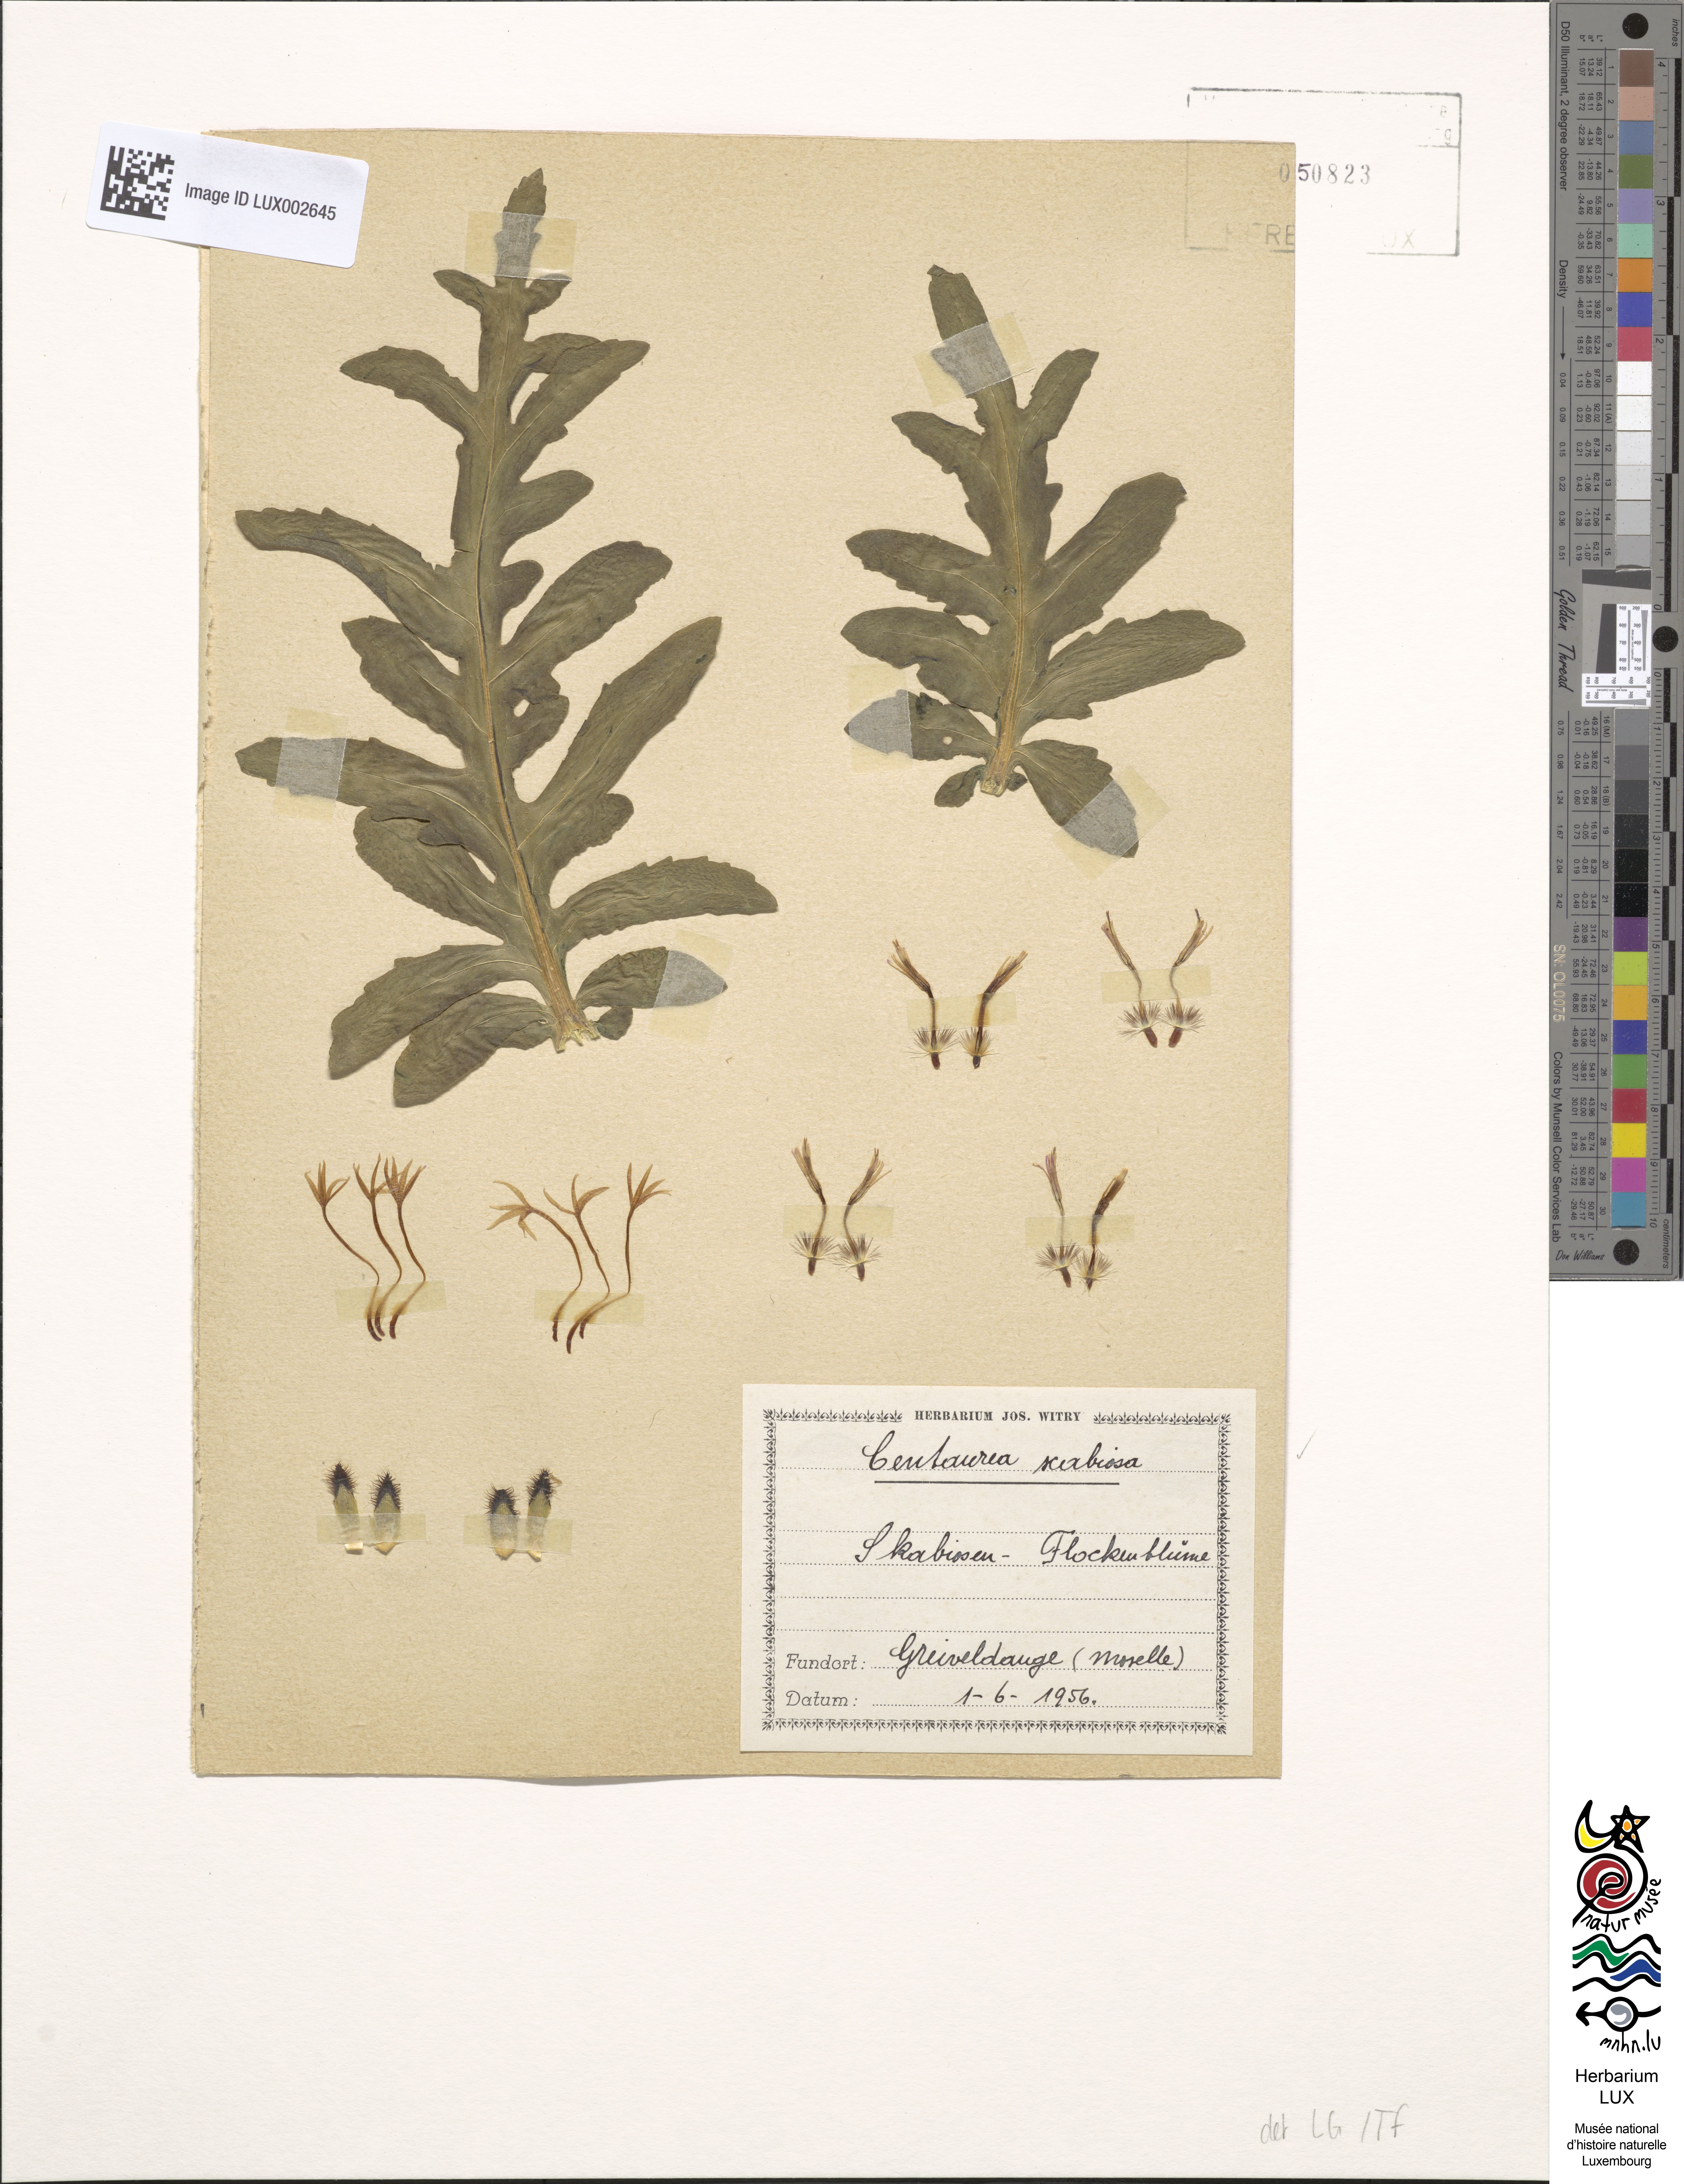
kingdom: Plantae
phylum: Tracheophyta
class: Magnoliopsida
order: Asterales
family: Asteraceae
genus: Centaurea
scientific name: Centaurea scabiosa
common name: Greater knapweed
